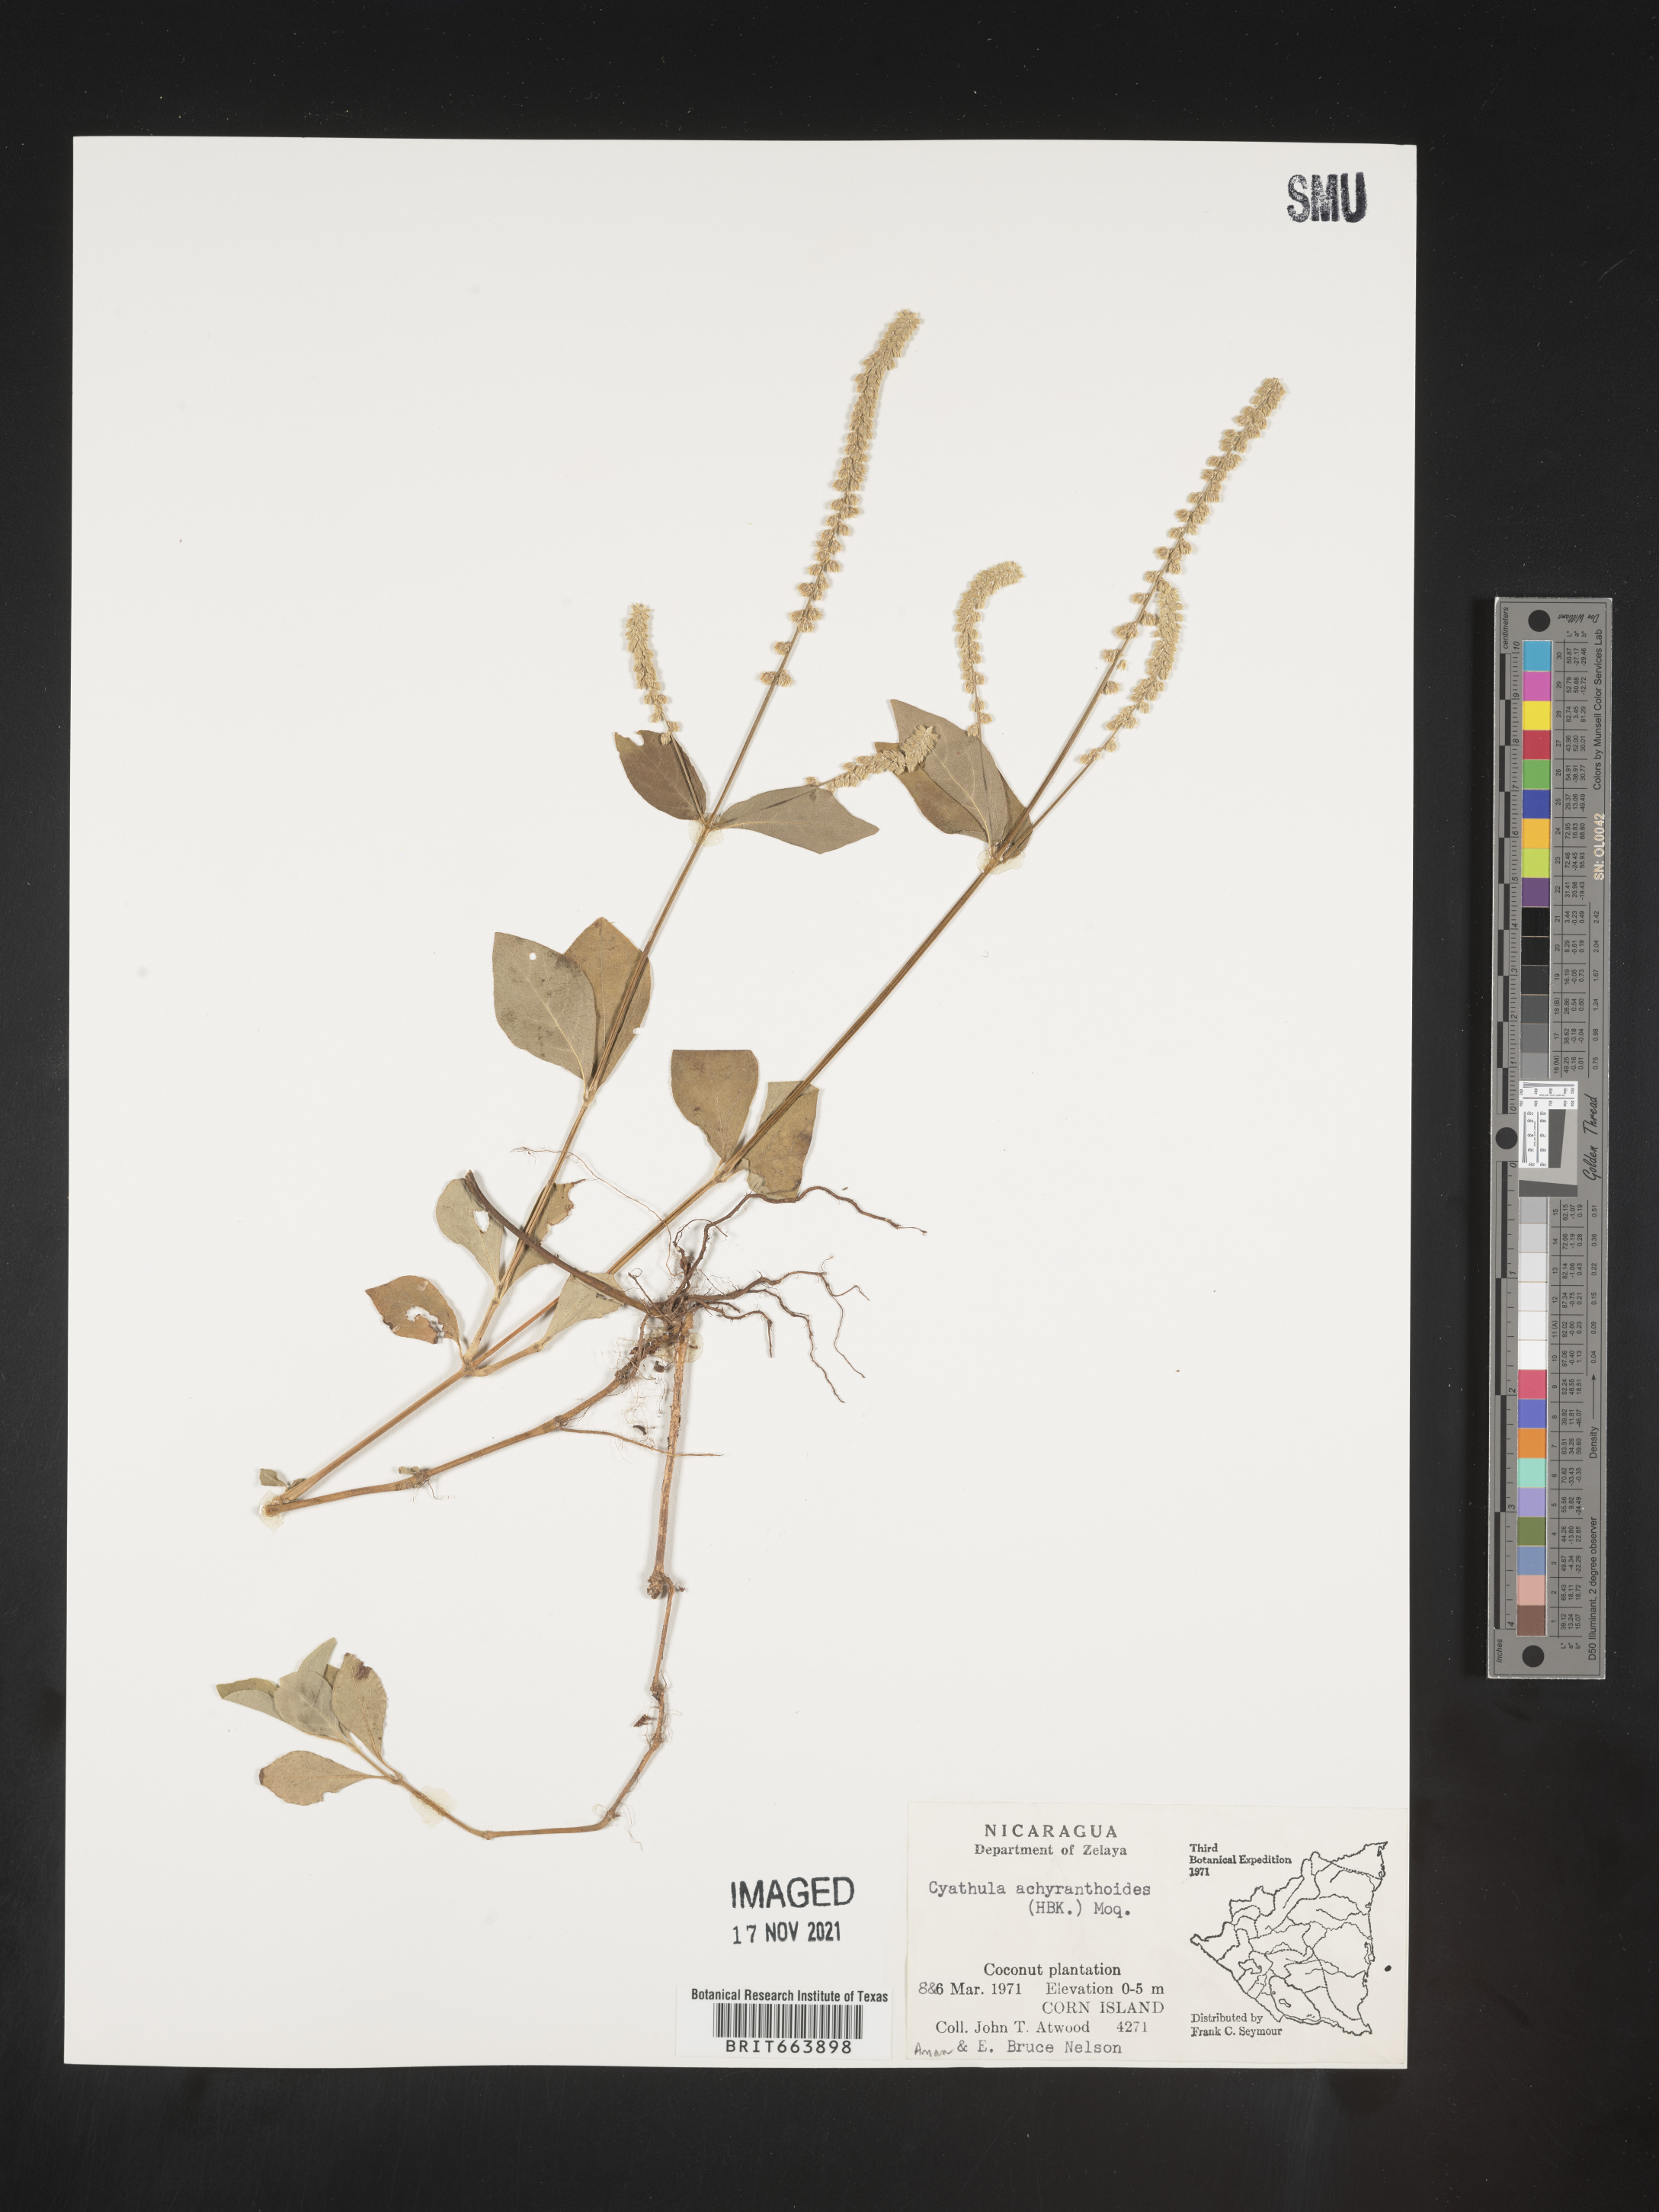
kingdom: Plantae
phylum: Tracheophyta
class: Magnoliopsida
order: Caryophyllales
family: Amaranthaceae
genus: Cyathula
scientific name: Cyathula
